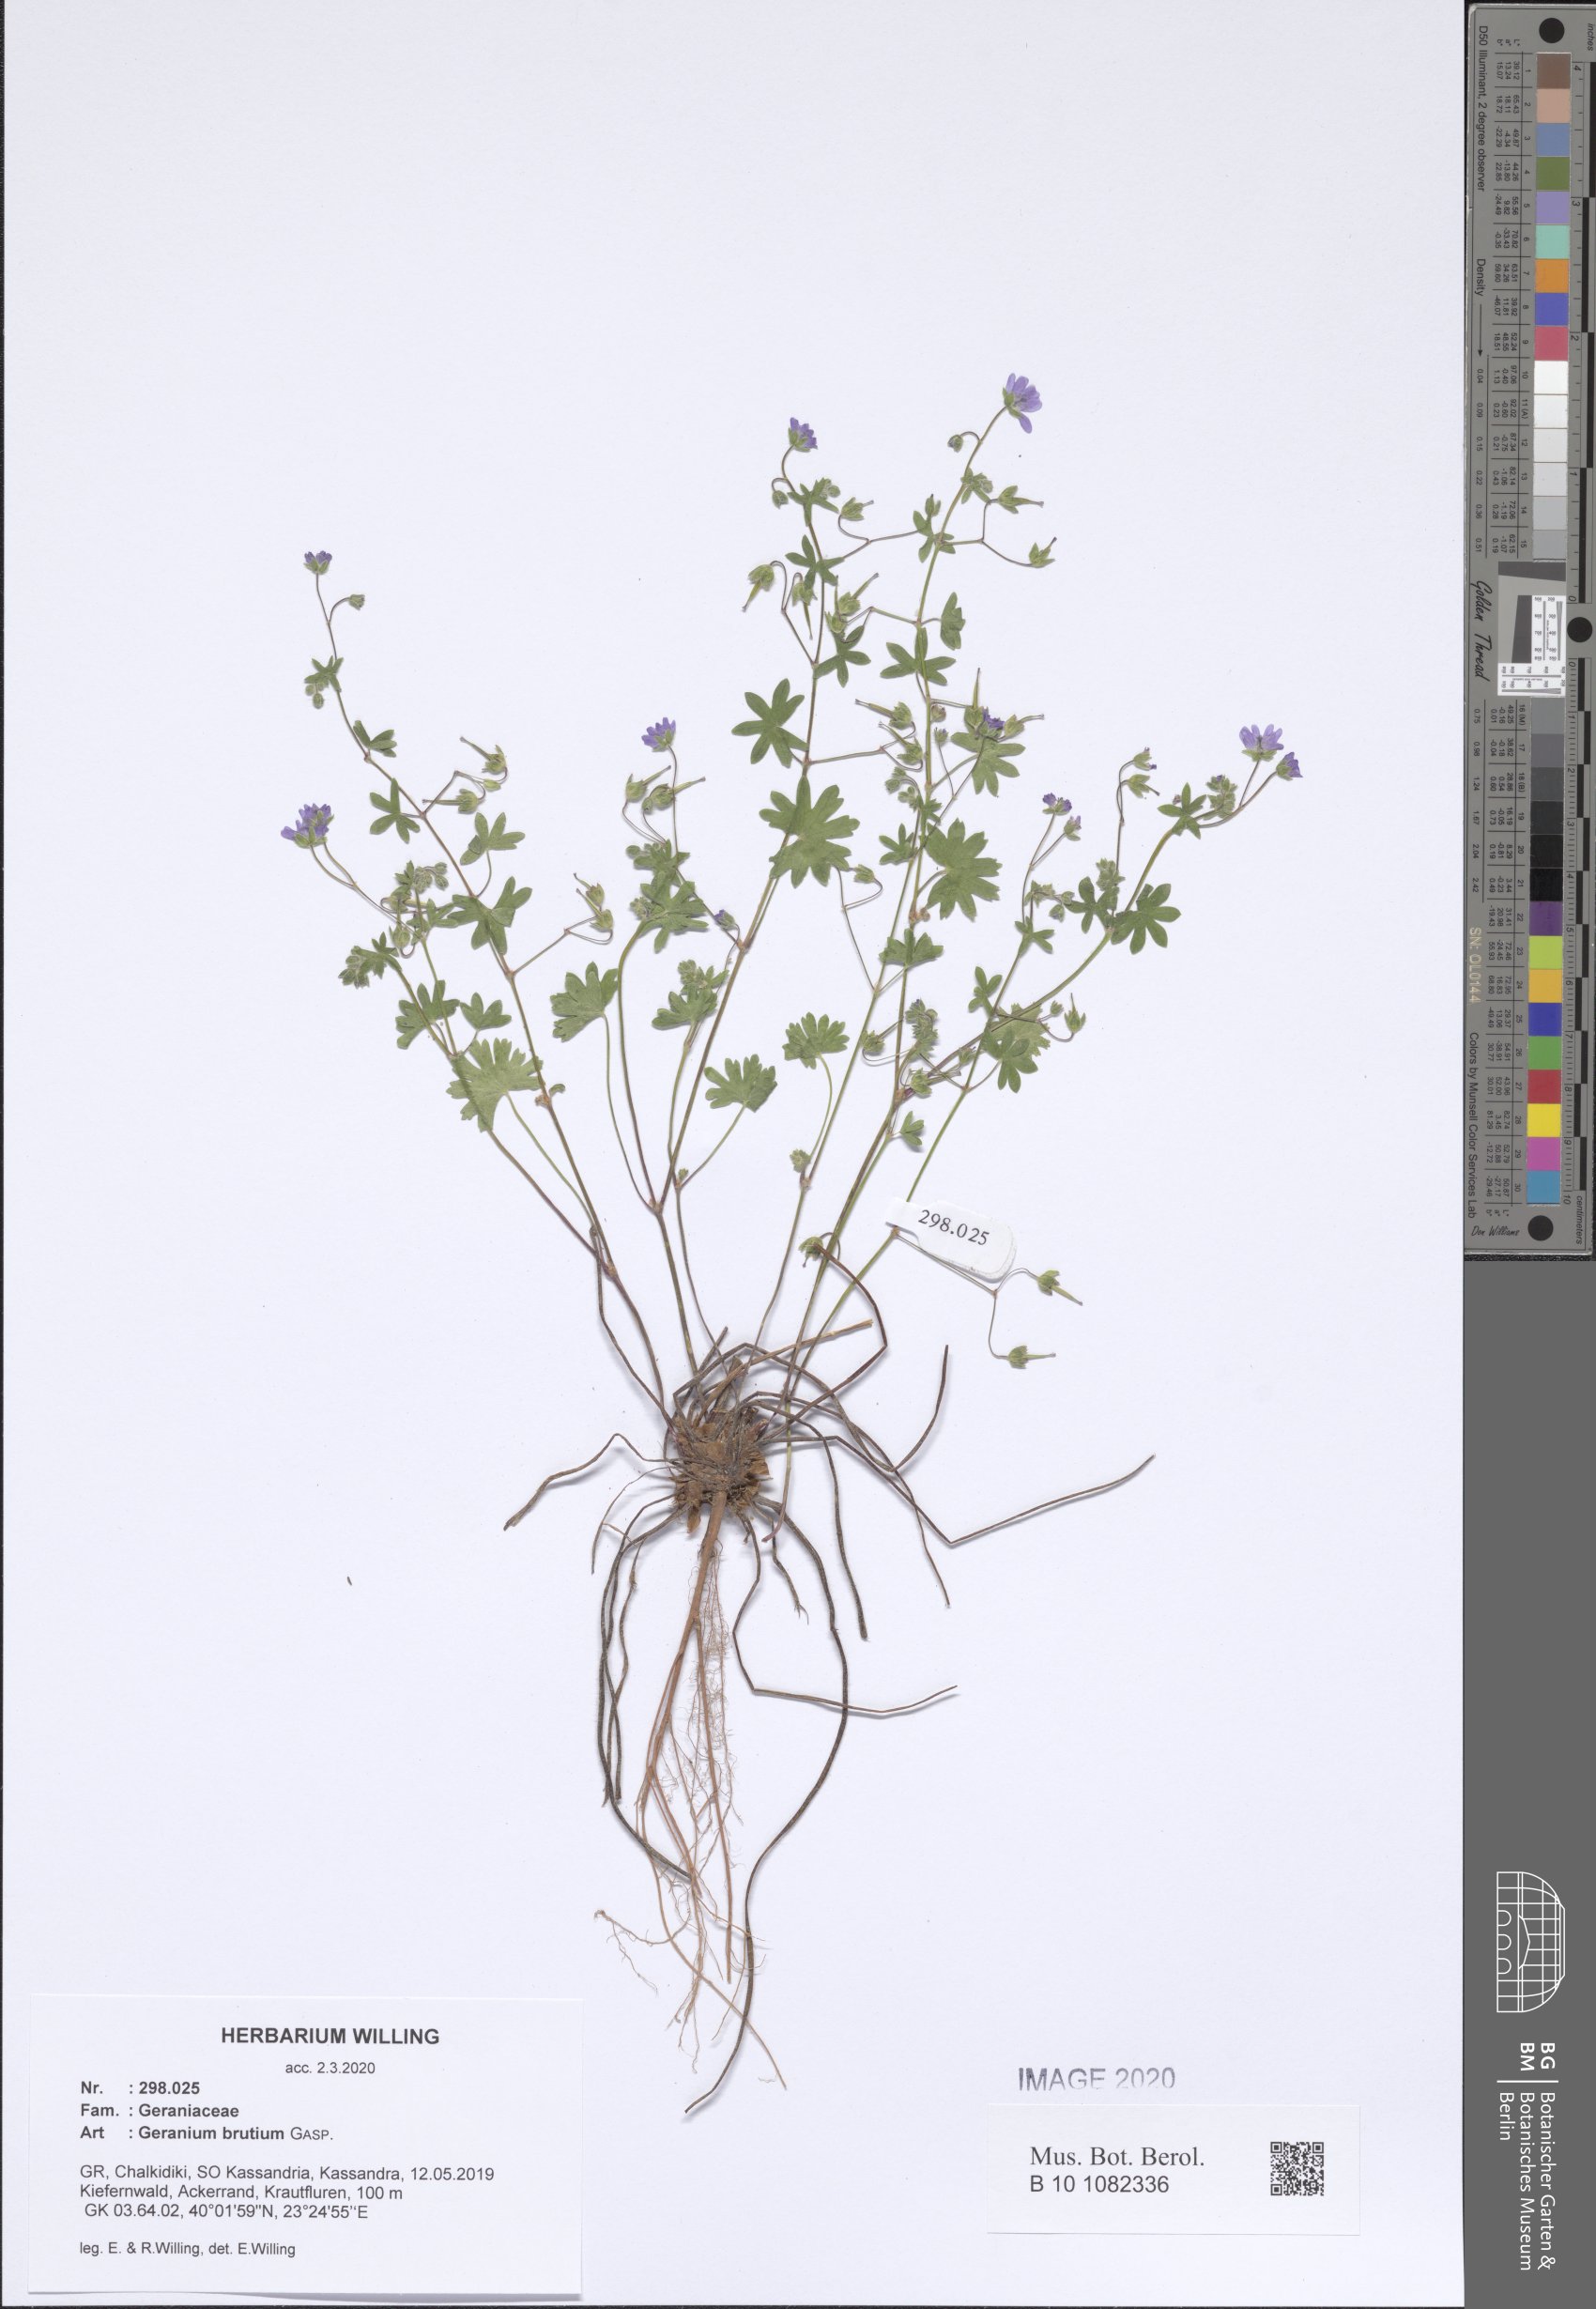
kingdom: Plantae
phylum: Tracheophyta
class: Magnoliopsida
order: Geraniales
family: Geraniaceae
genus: Geranium
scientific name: Geranium molle
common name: Dove's-foot crane's-bill
